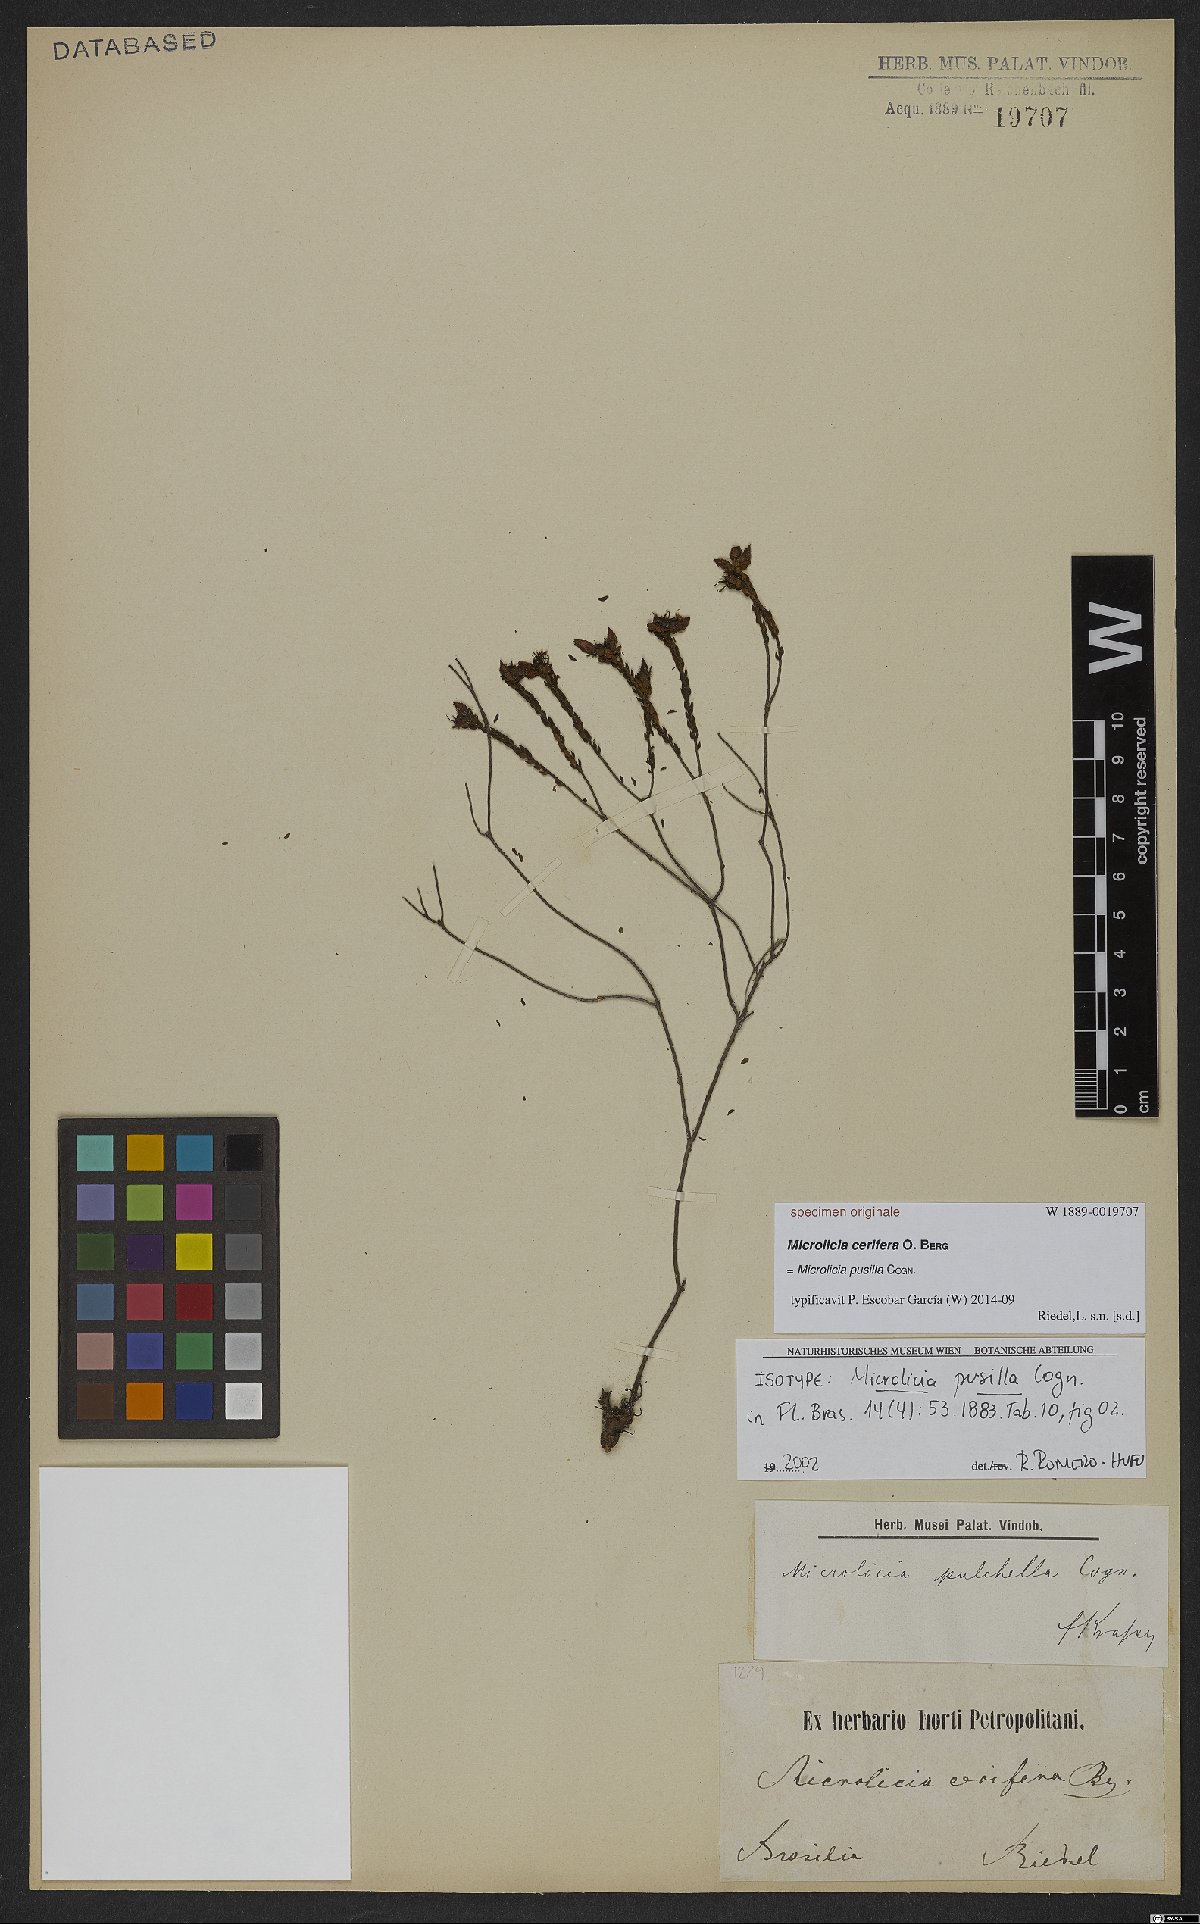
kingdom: Plantae
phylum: Tracheophyta
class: Magnoliopsida
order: Myrtales
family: Melastomataceae
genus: Microlicia
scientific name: Microlicia pusilla
